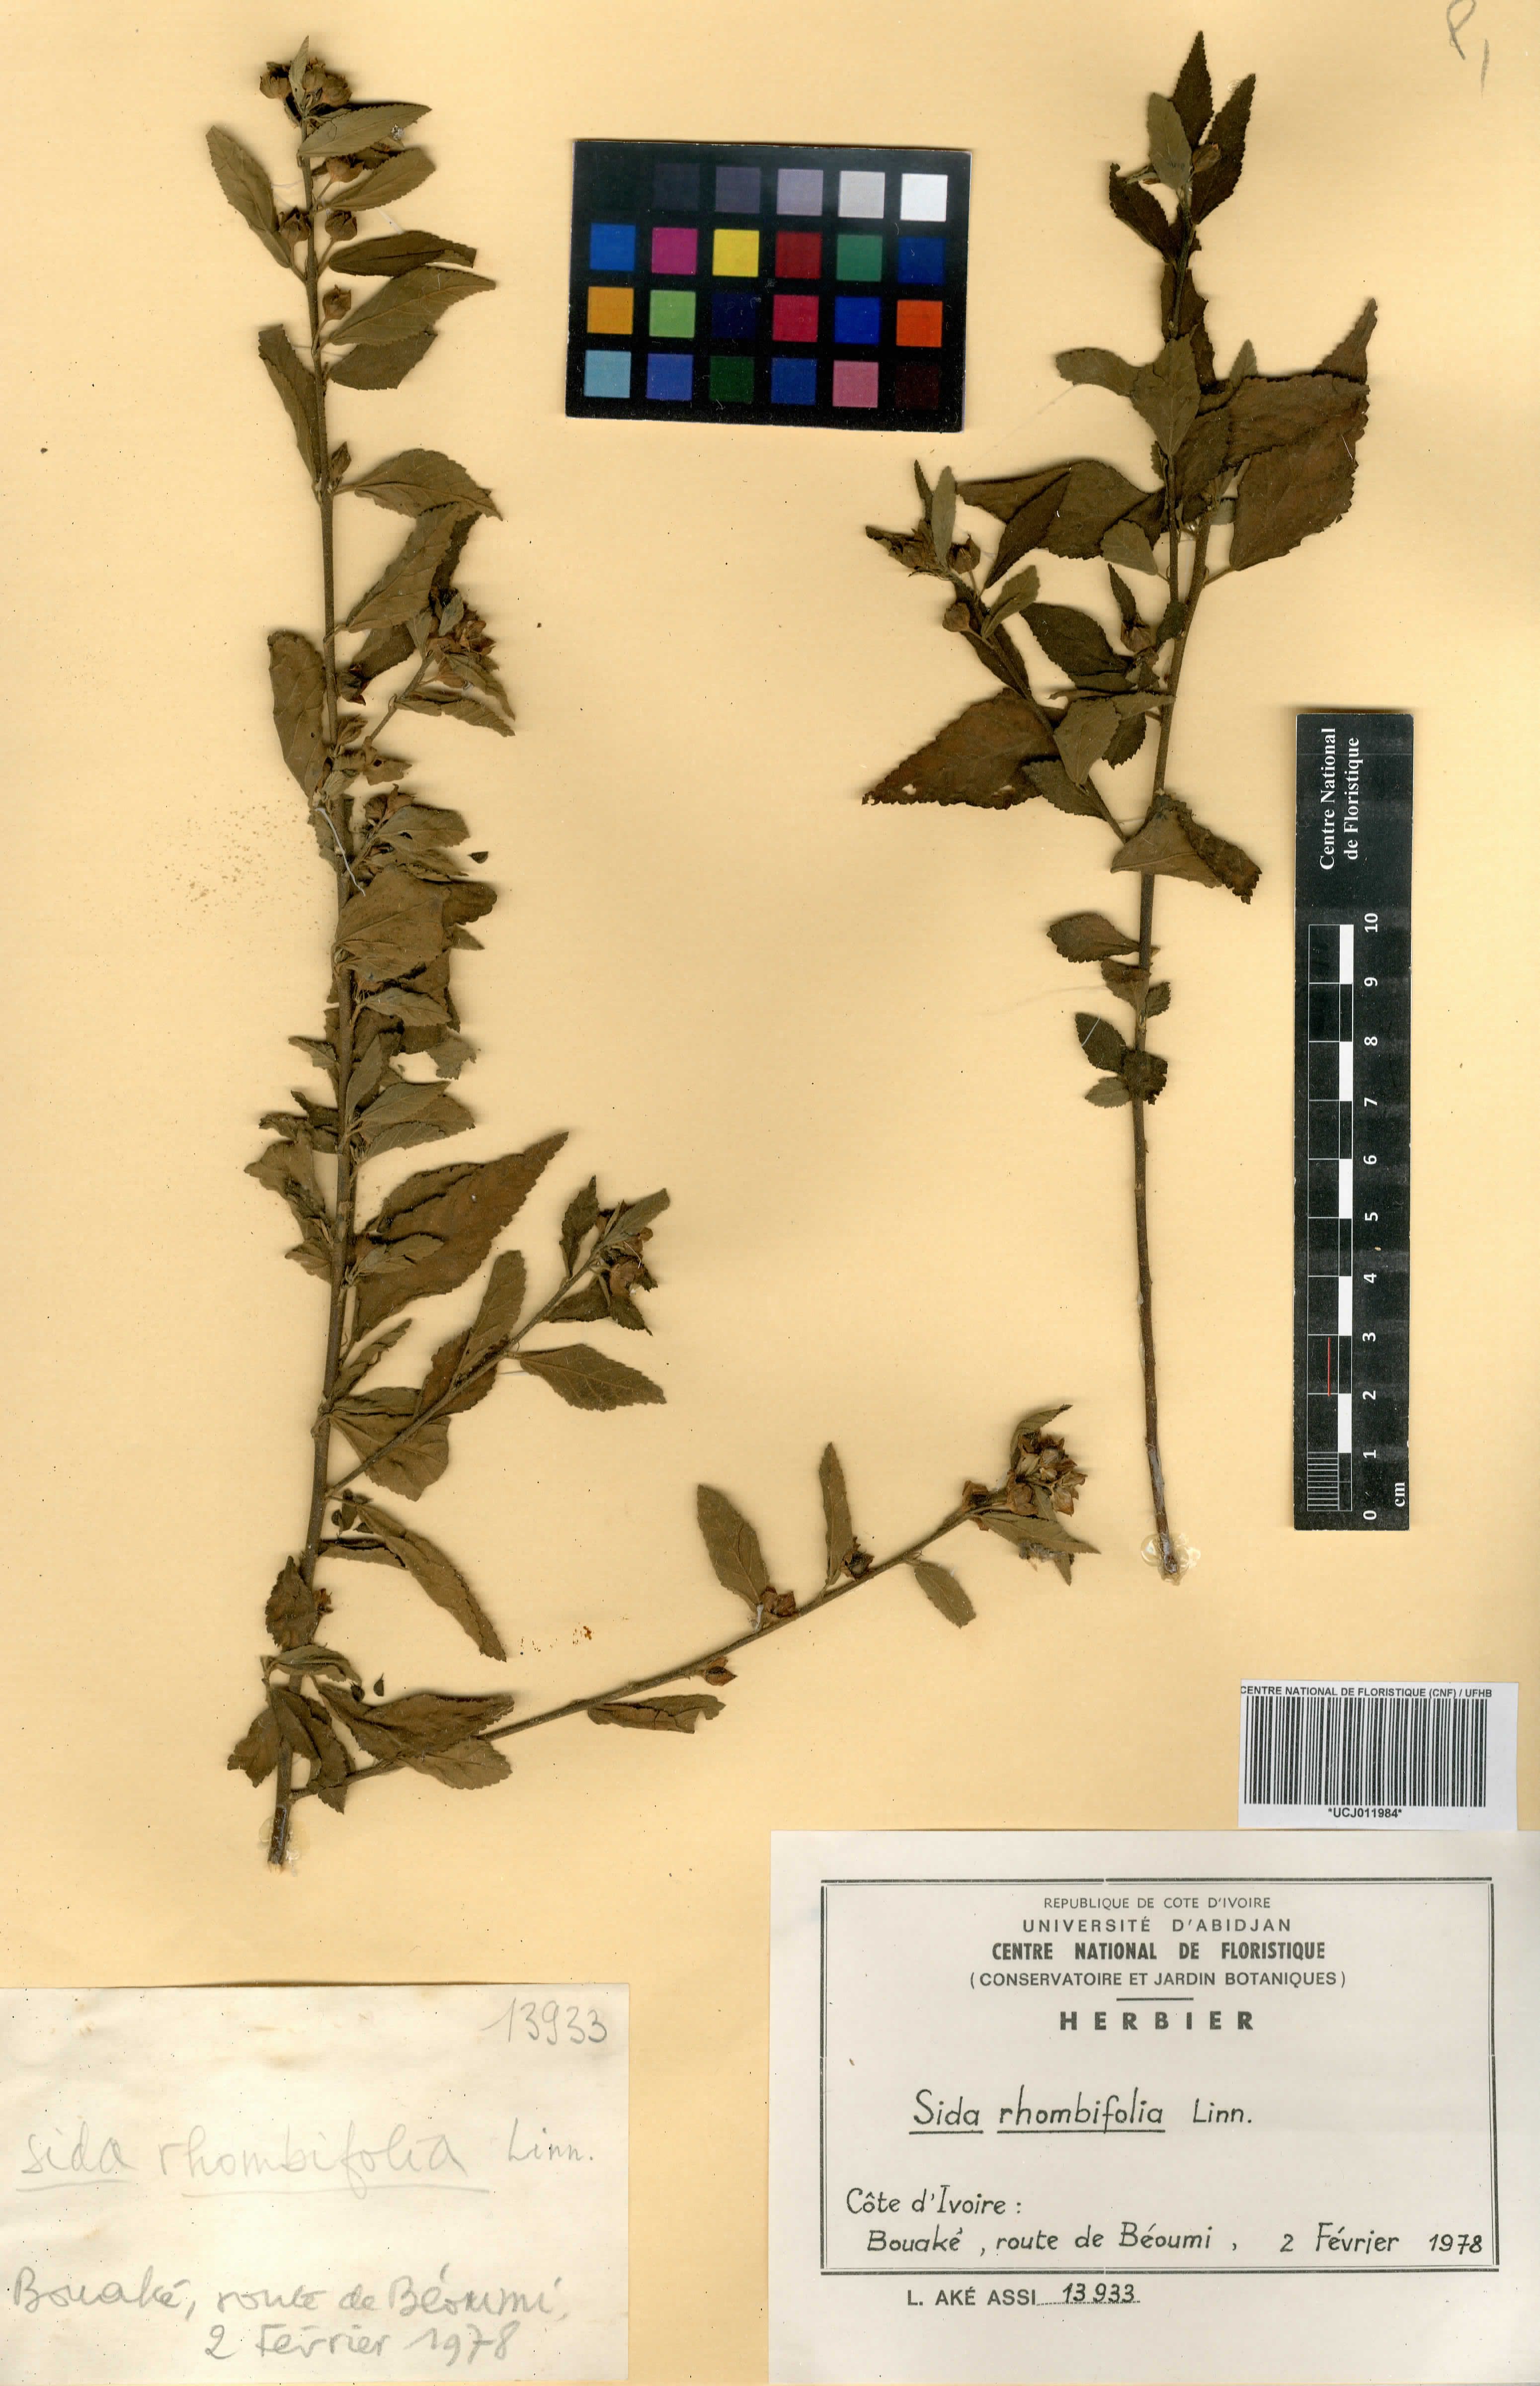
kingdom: Plantae
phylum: Tracheophyta
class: Magnoliopsida
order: Malvales
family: Malvaceae
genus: Sida
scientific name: Sida rhombifolia
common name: Queensland-hemp
